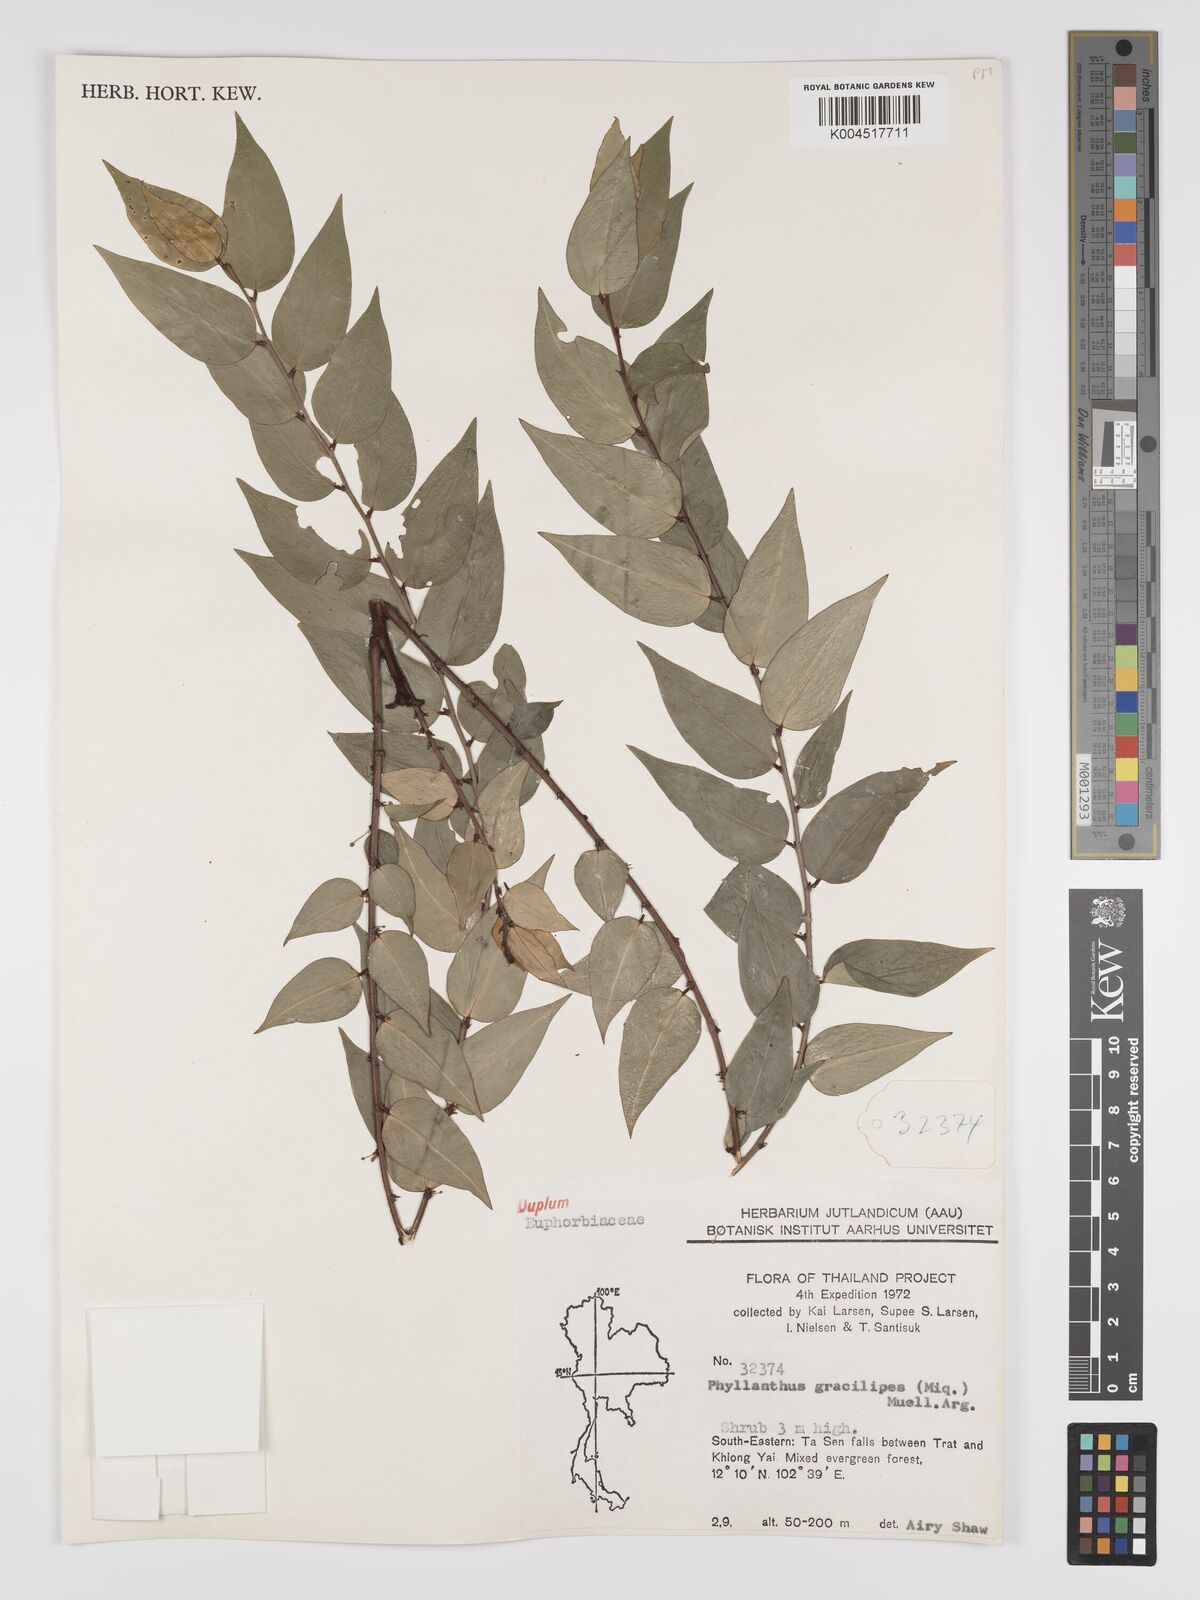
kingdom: Plantae
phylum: Tracheophyta
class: Magnoliopsida
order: Malpighiales
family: Phyllanthaceae
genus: Phyllanthus
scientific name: Phyllanthus
